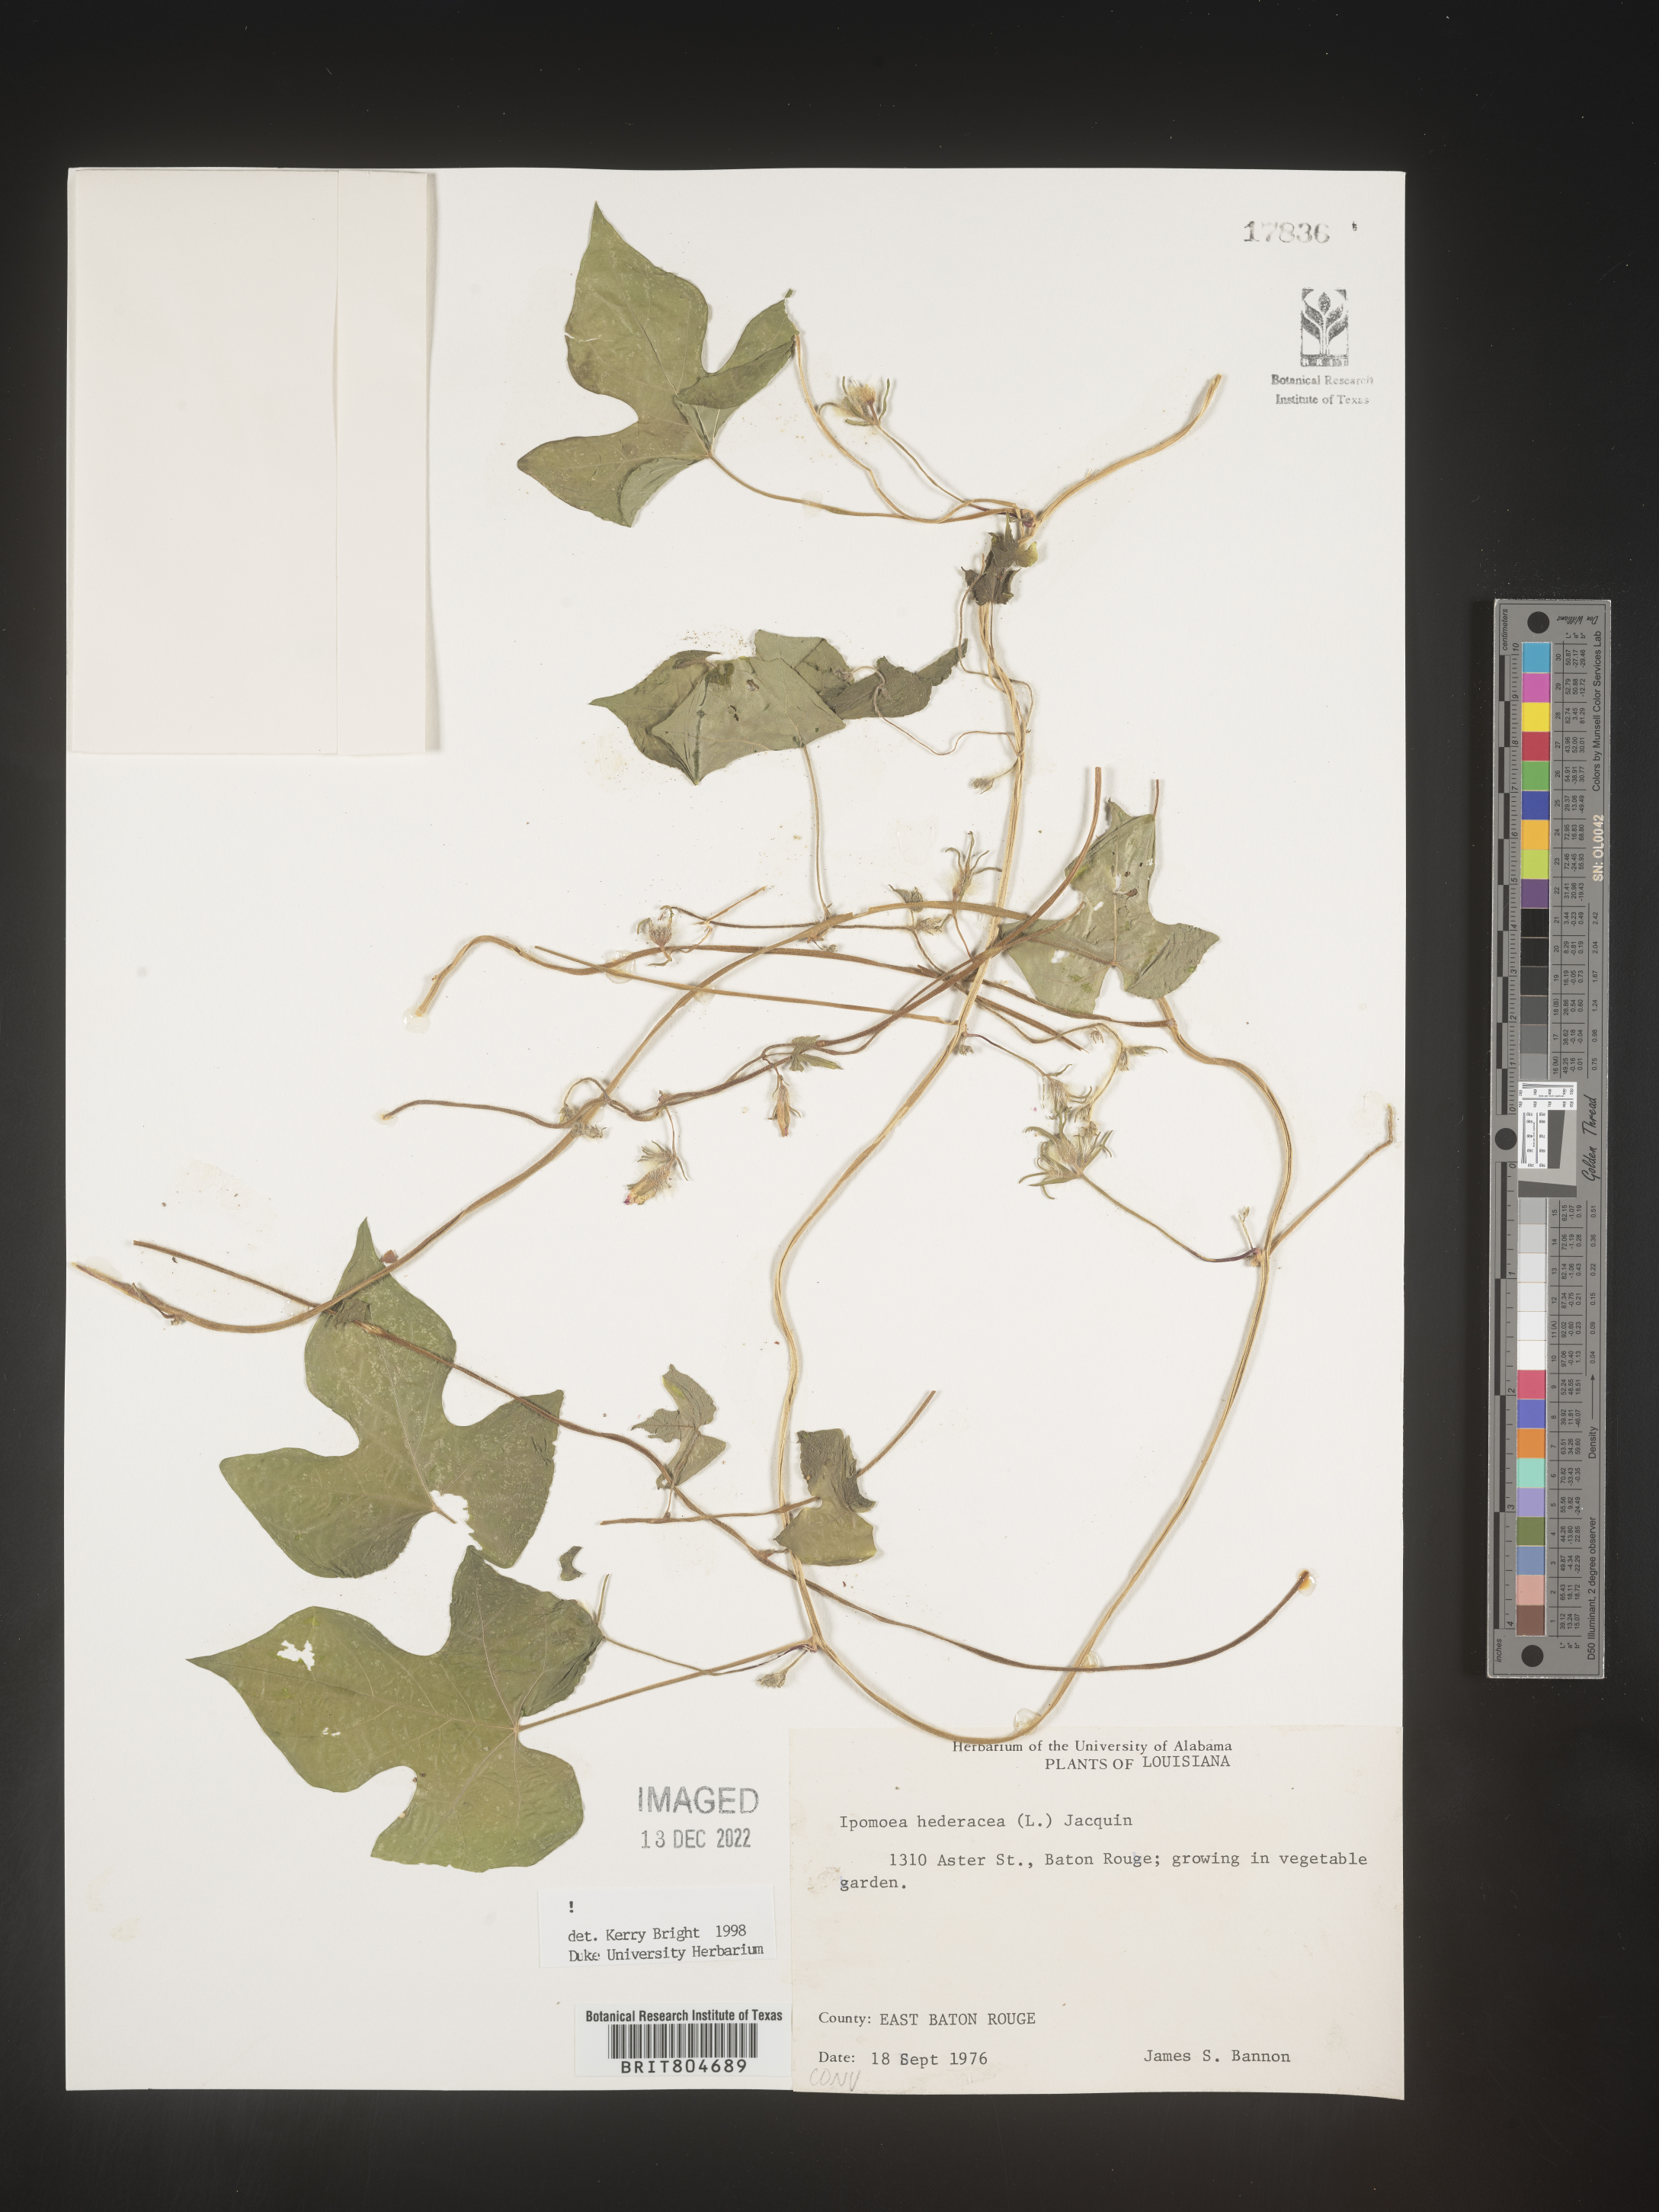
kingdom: Plantae
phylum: Tracheophyta
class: Magnoliopsida
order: Solanales
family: Convolvulaceae
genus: Ipomoea
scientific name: Ipomoea hederacea
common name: Ivy-leaved morning-glory
